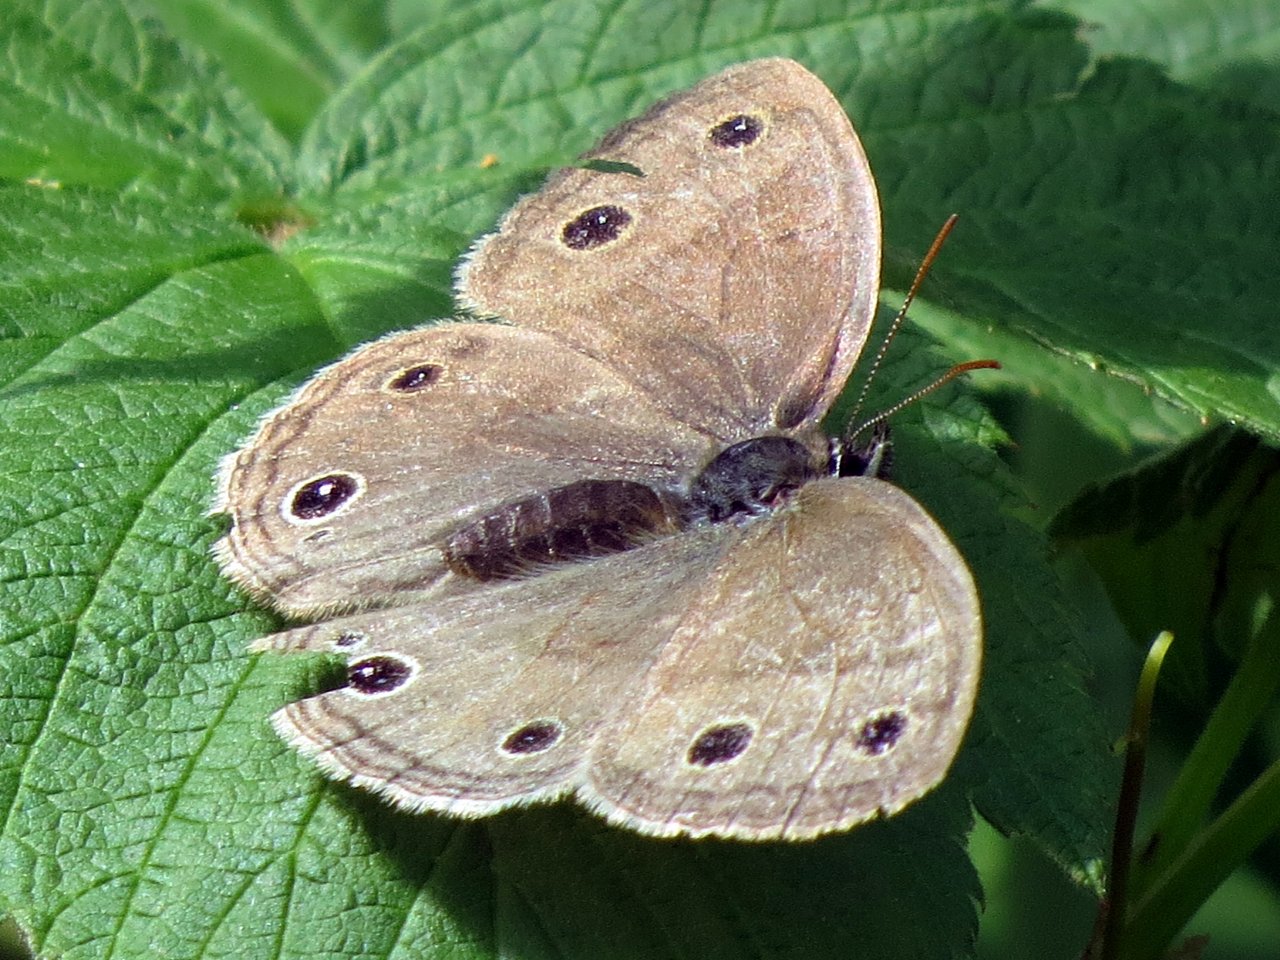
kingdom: Animalia
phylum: Arthropoda
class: Insecta
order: Lepidoptera
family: Nymphalidae
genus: Euptychia
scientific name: Euptychia cymela
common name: Little Wood Satyr
